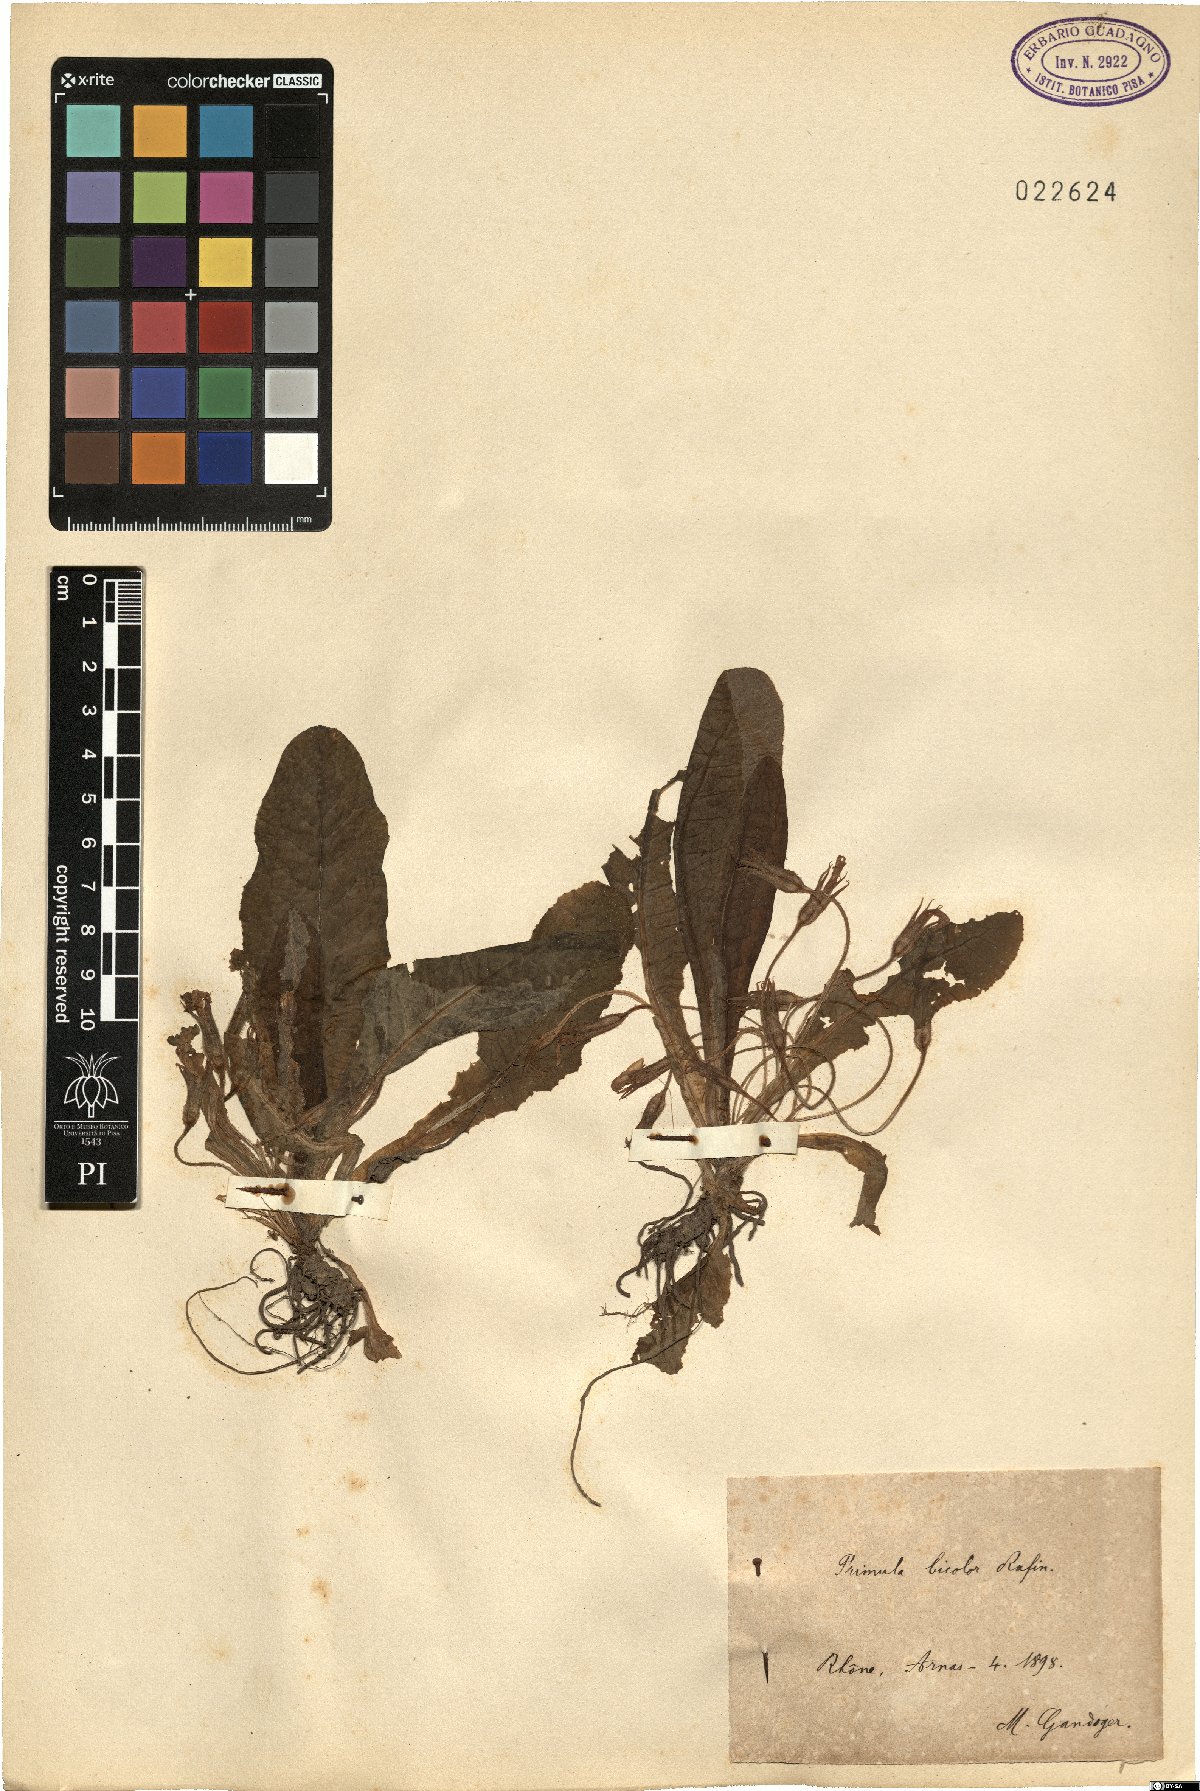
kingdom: Plantae
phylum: Tracheophyta
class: Magnoliopsida
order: Ericales
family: Primulaceae
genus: Primula
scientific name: Primula
